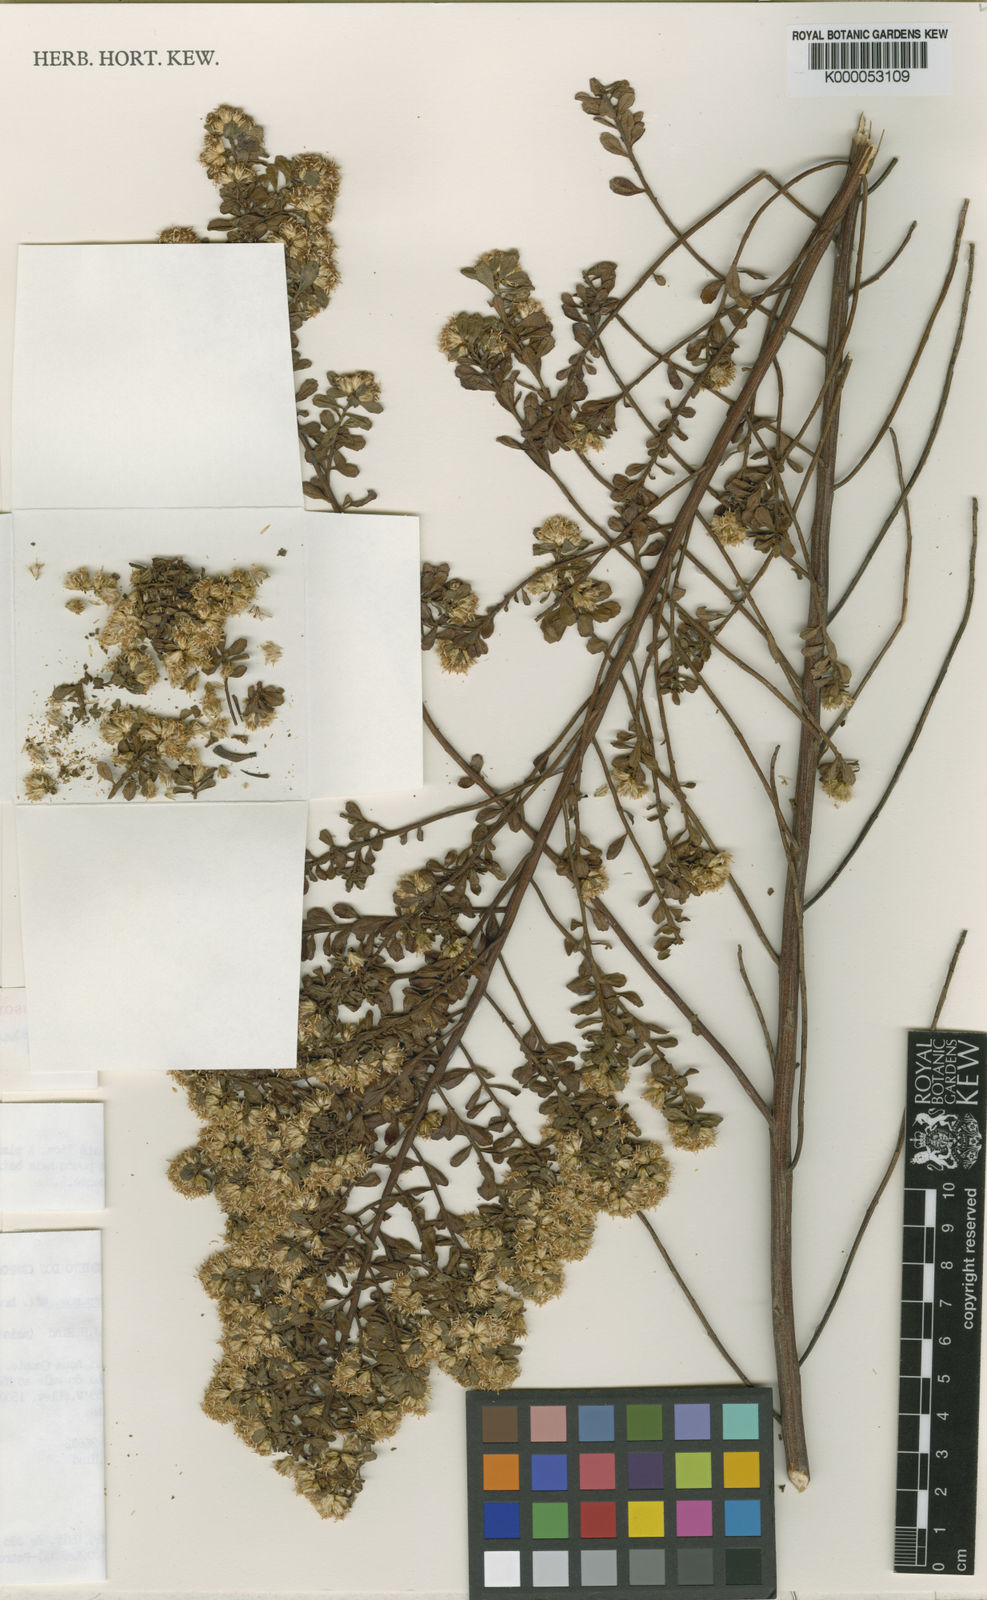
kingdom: Plantae
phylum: Tracheophyta
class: Magnoliopsida
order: Asterales
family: Asteraceae
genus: Baccharis
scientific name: Baccharis brevifolia
